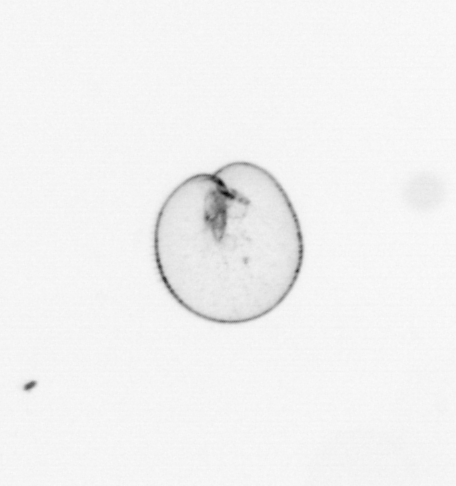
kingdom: Chromista
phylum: Myzozoa
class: Dinophyceae
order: Noctilucales
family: Noctilucaceae
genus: Noctiluca
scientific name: Noctiluca scintillans
